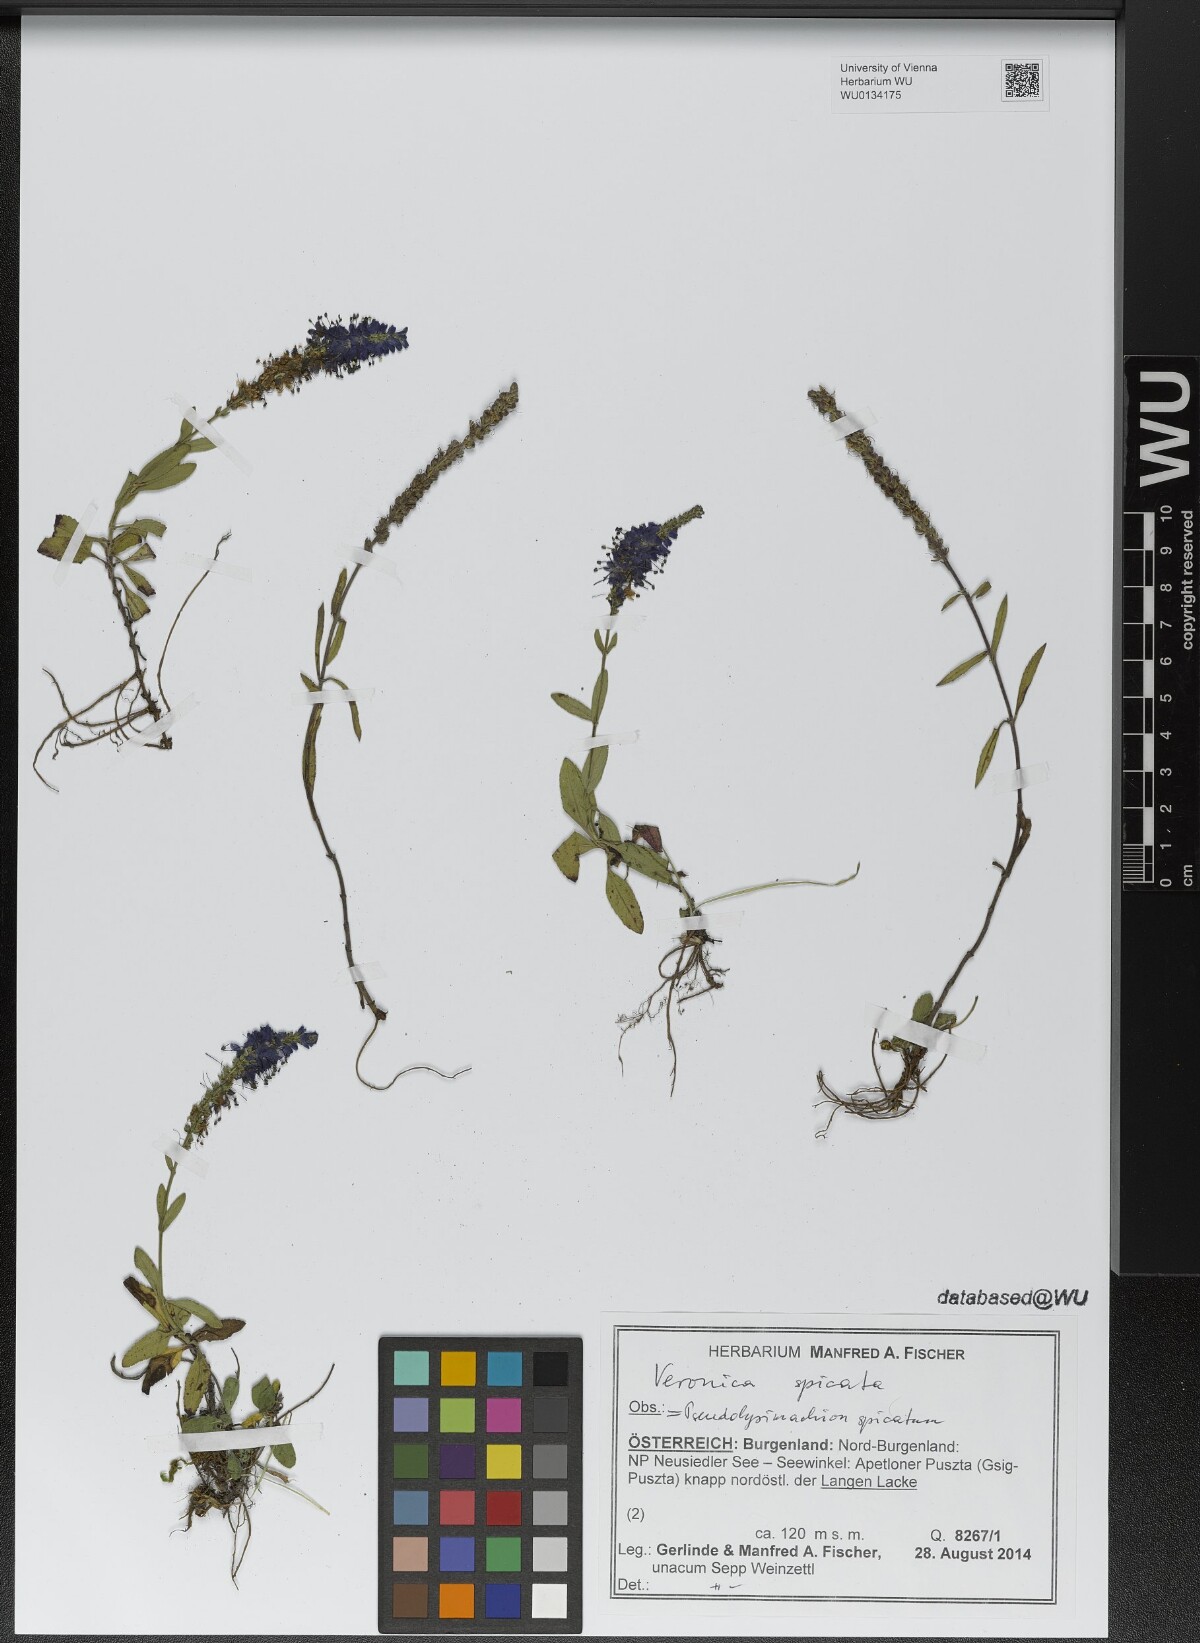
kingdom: Plantae
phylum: Tracheophyta
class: Magnoliopsida
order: Lamiales
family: Plantaginaceae
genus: Veronica
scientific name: Veronica spicata
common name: Spiked speedwell
